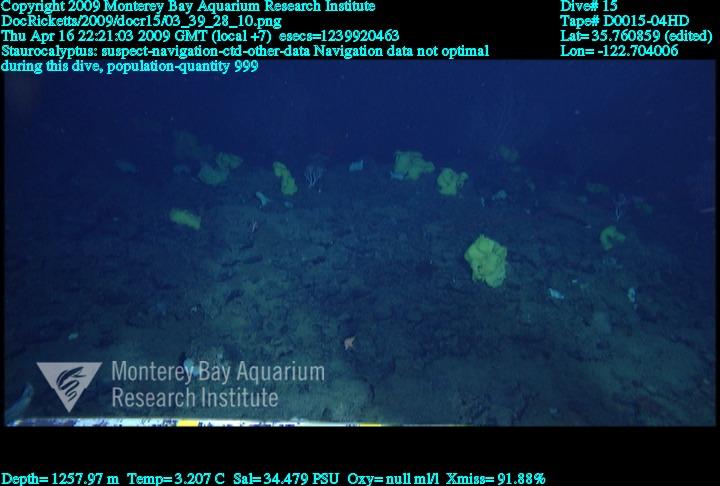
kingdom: Animalia
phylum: Porifera
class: Hexactinellida
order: Lyssacinosida
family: Rossellidae
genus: Staurocalyptus
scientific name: Staurocalyptus
